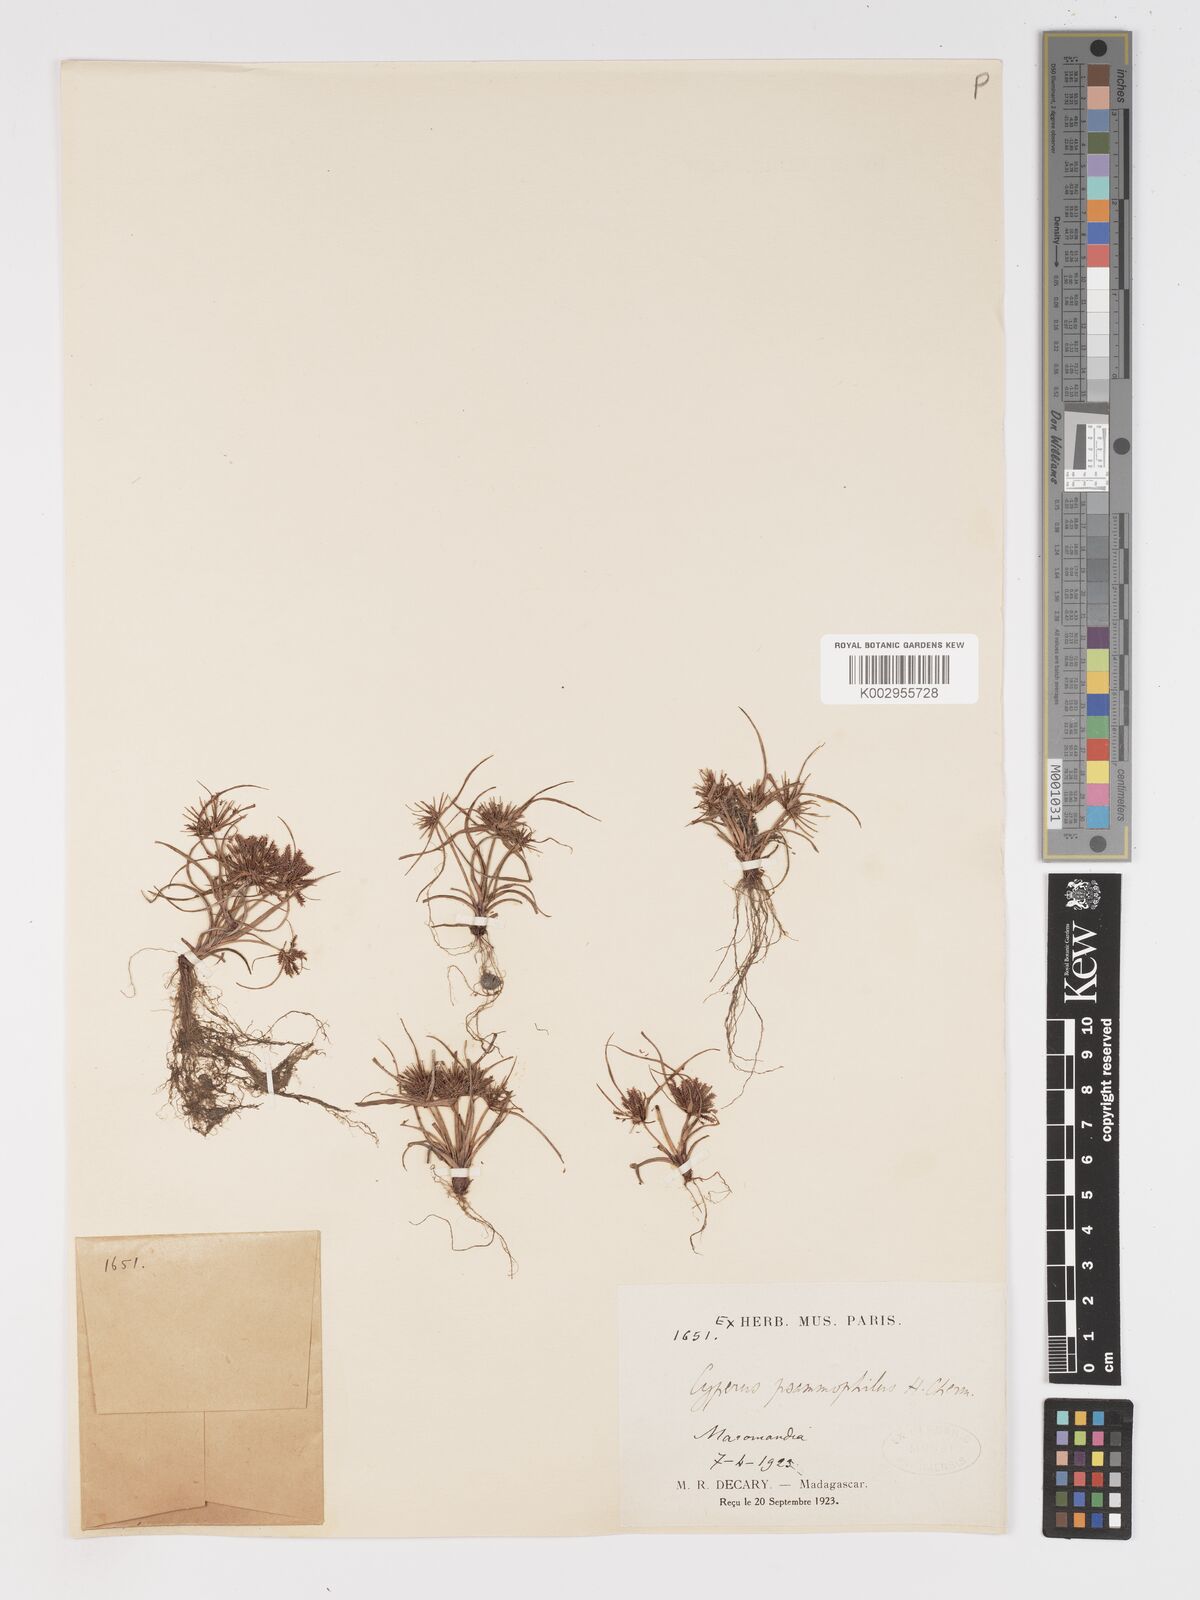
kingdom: Plantae
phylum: Tracheophyta
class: Liliopsida
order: Poales
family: Cyperaceae
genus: Cyperus
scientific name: Cyperus psammophilus
